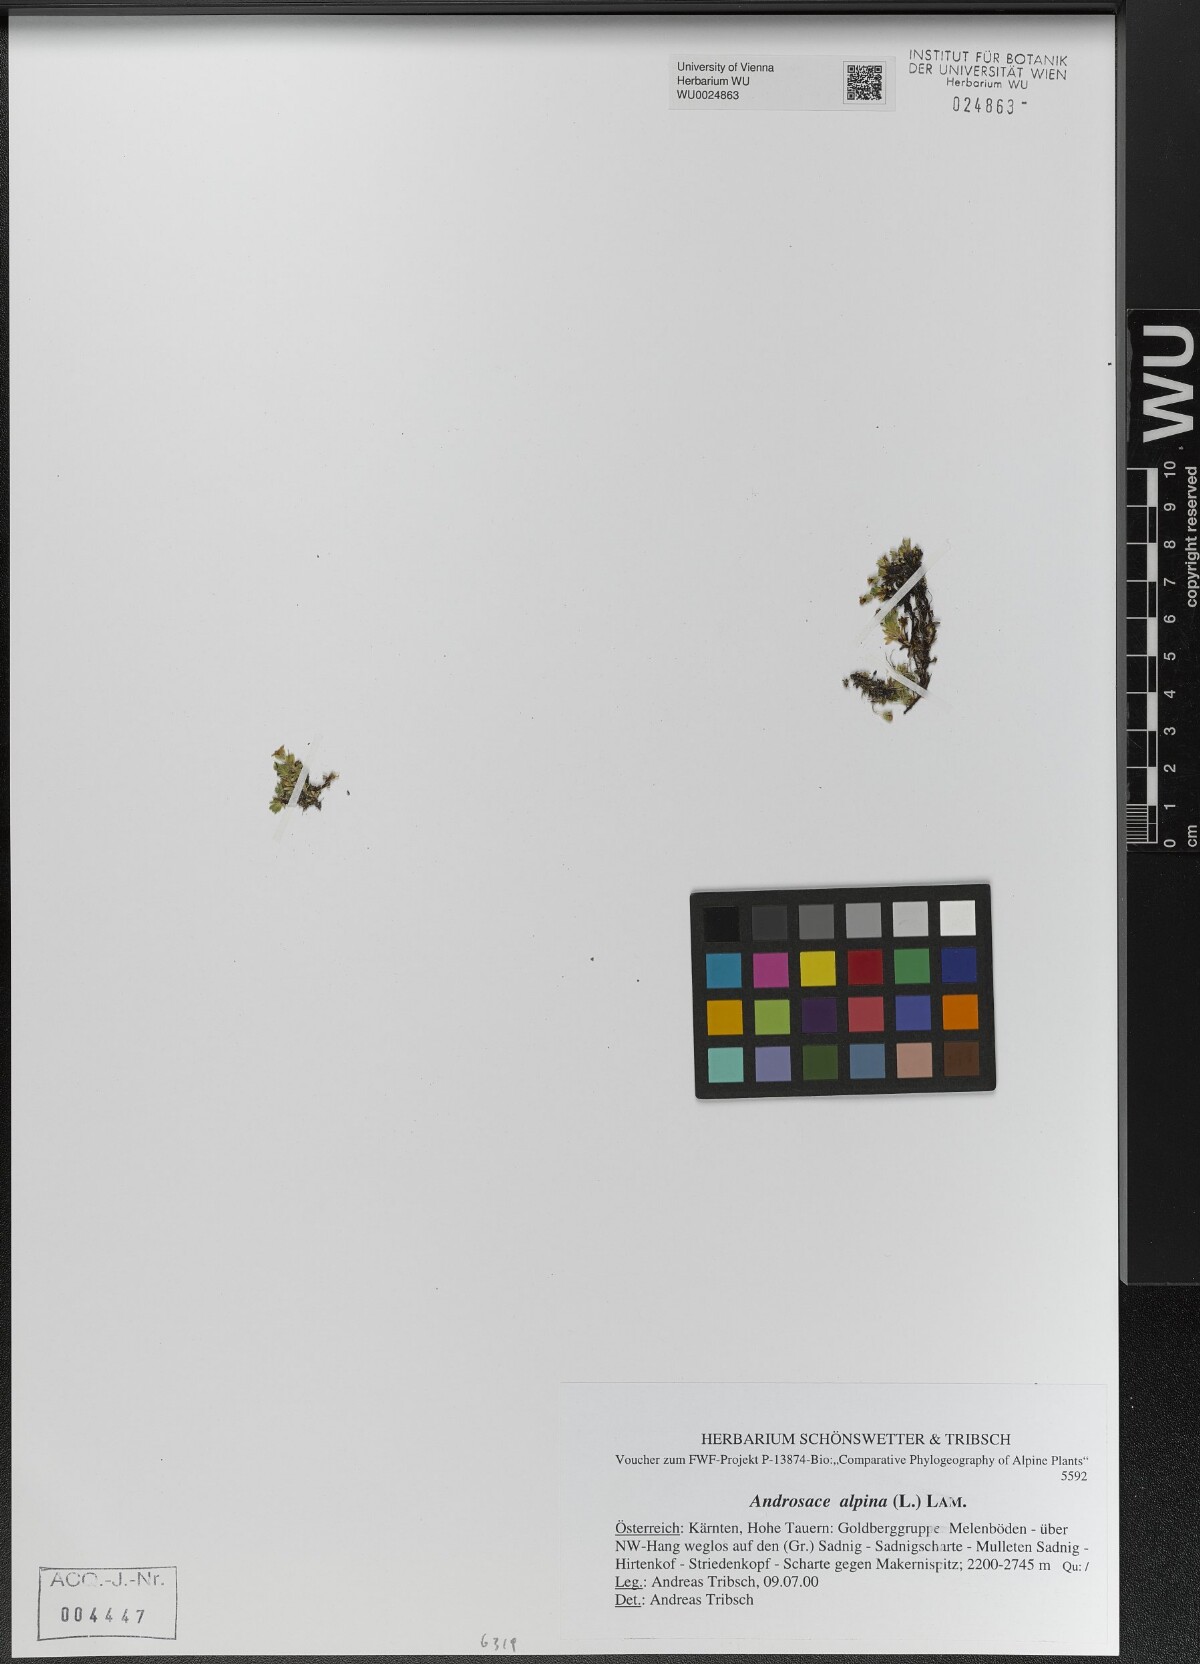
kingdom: Plantae
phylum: Tracheophyta
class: Magnoliopsida
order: Ericales
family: Primulaceae
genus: Androsace
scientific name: Androsace alpina
